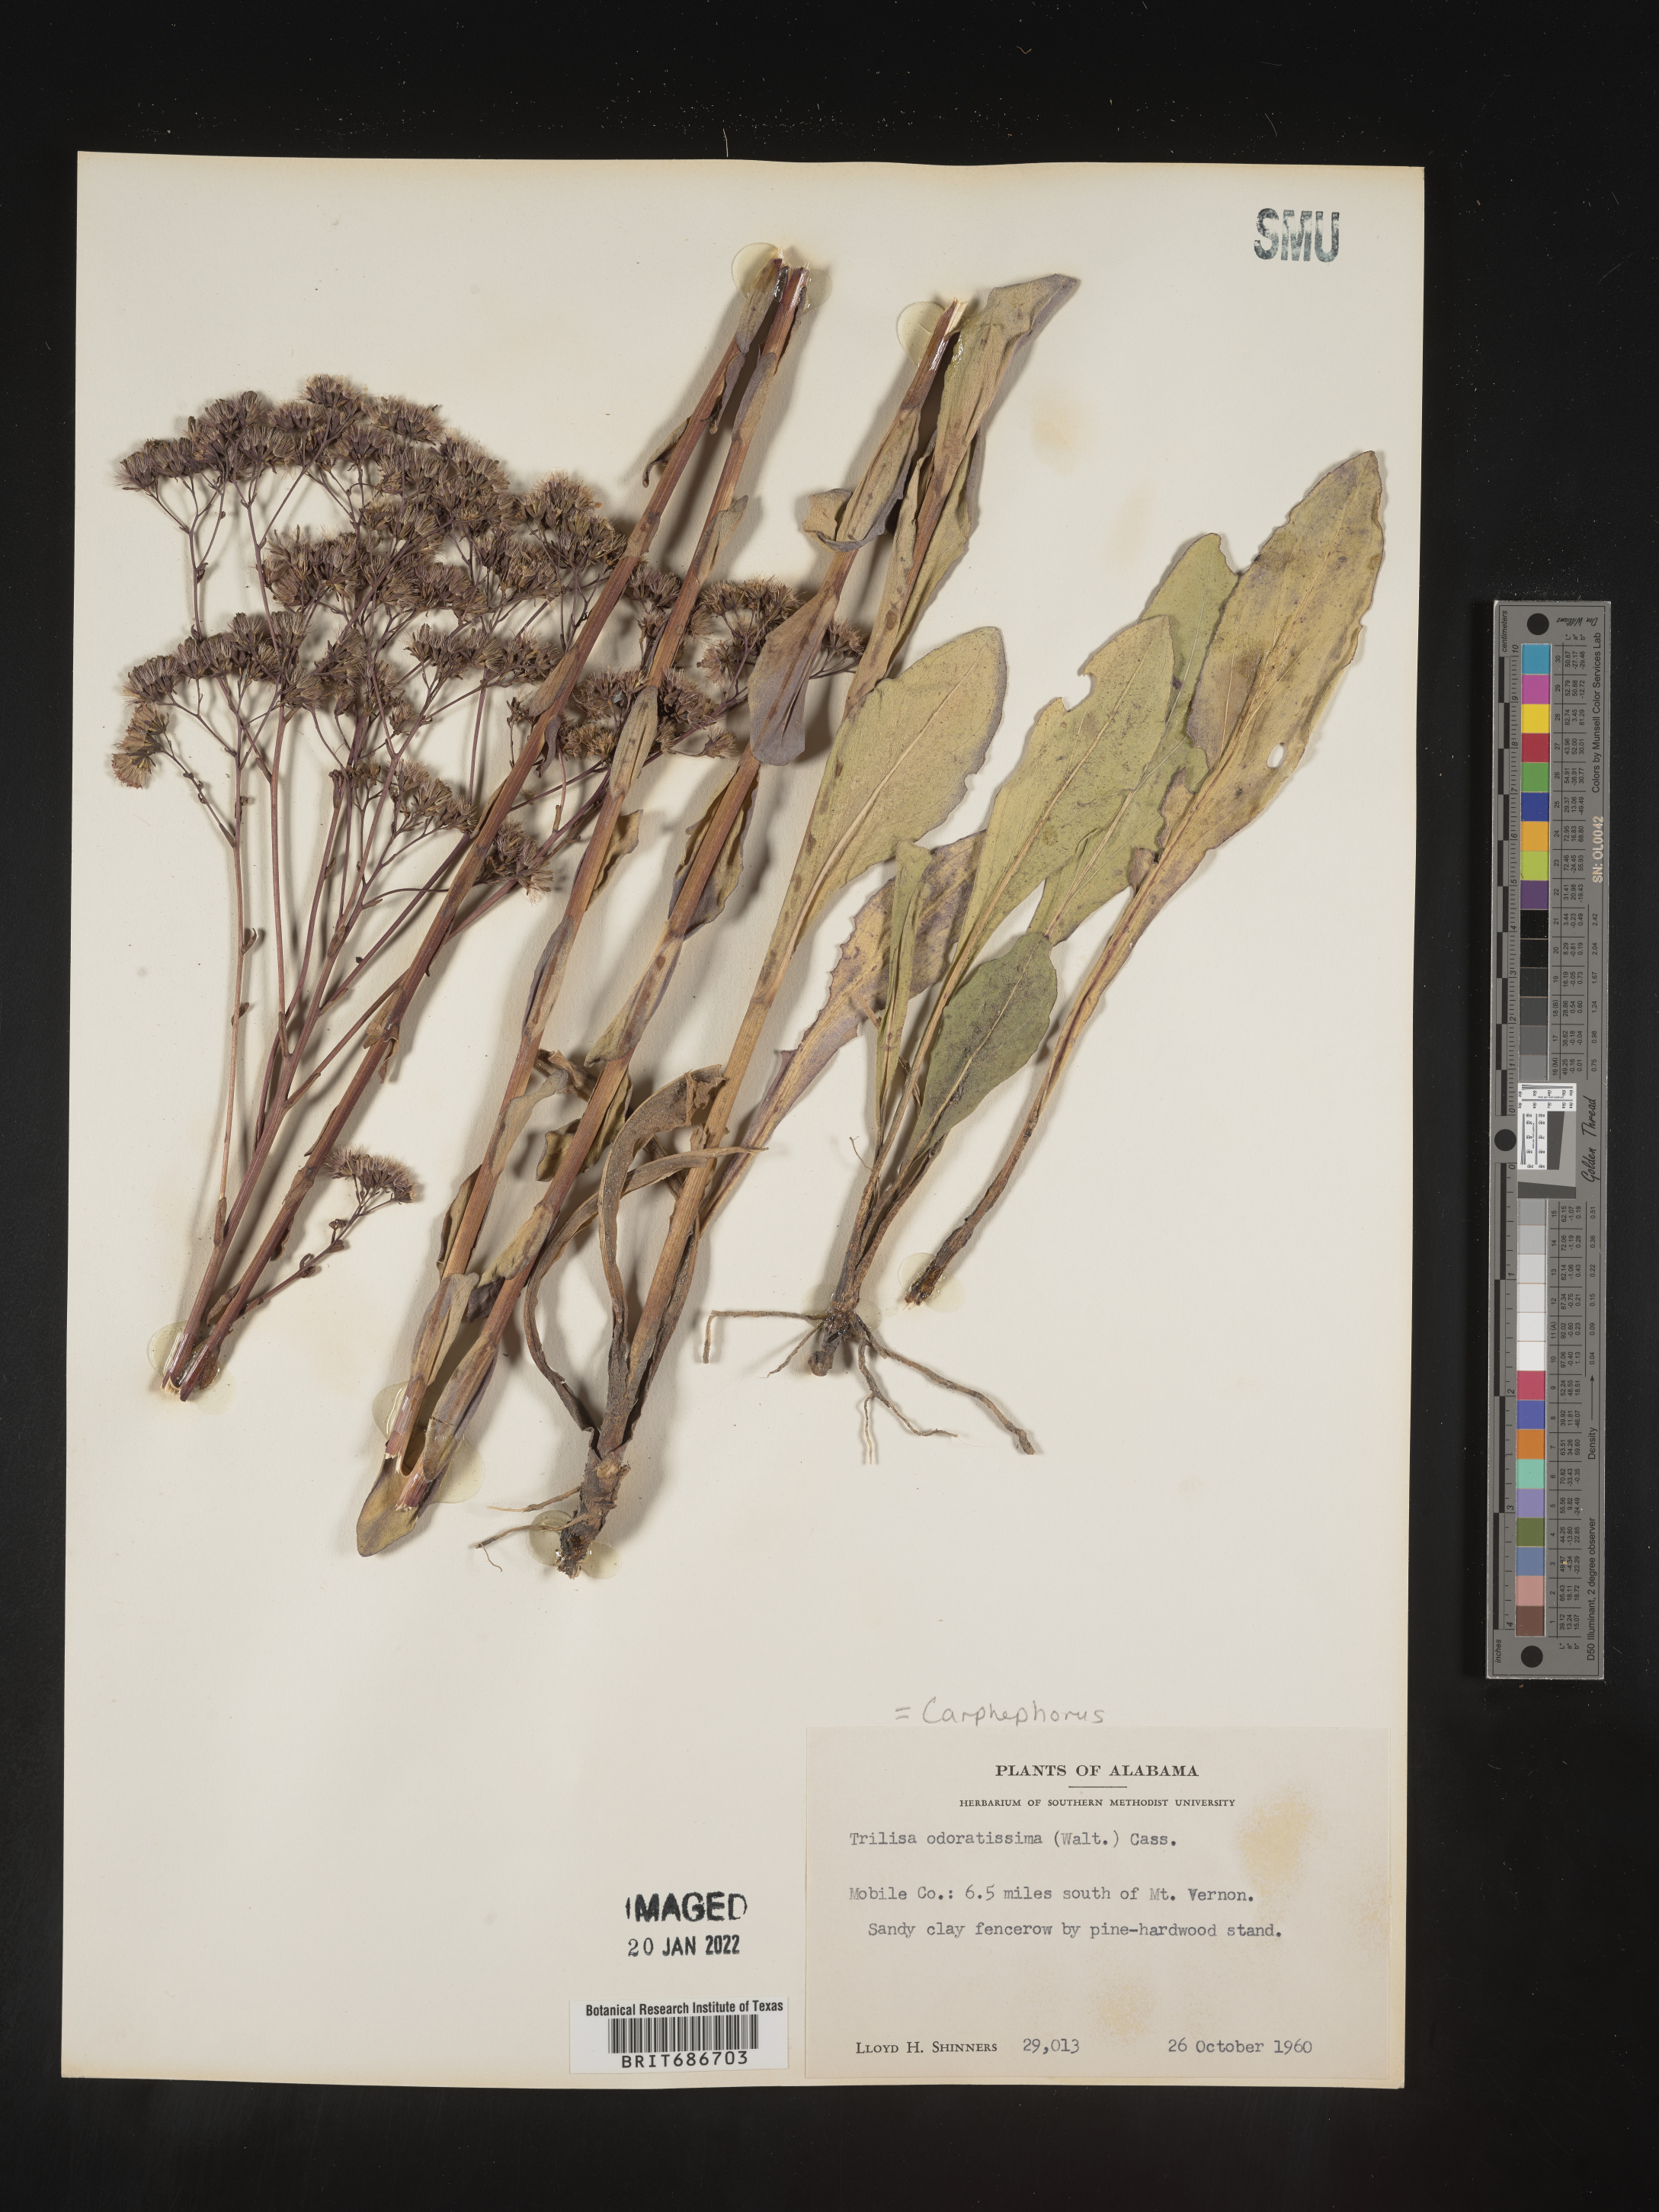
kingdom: Plantae
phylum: Tracheophyta
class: Magnoliopsida
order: Asterales
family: Asteraceae
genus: Carphephorus
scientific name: Carphephorus odoratissimus
